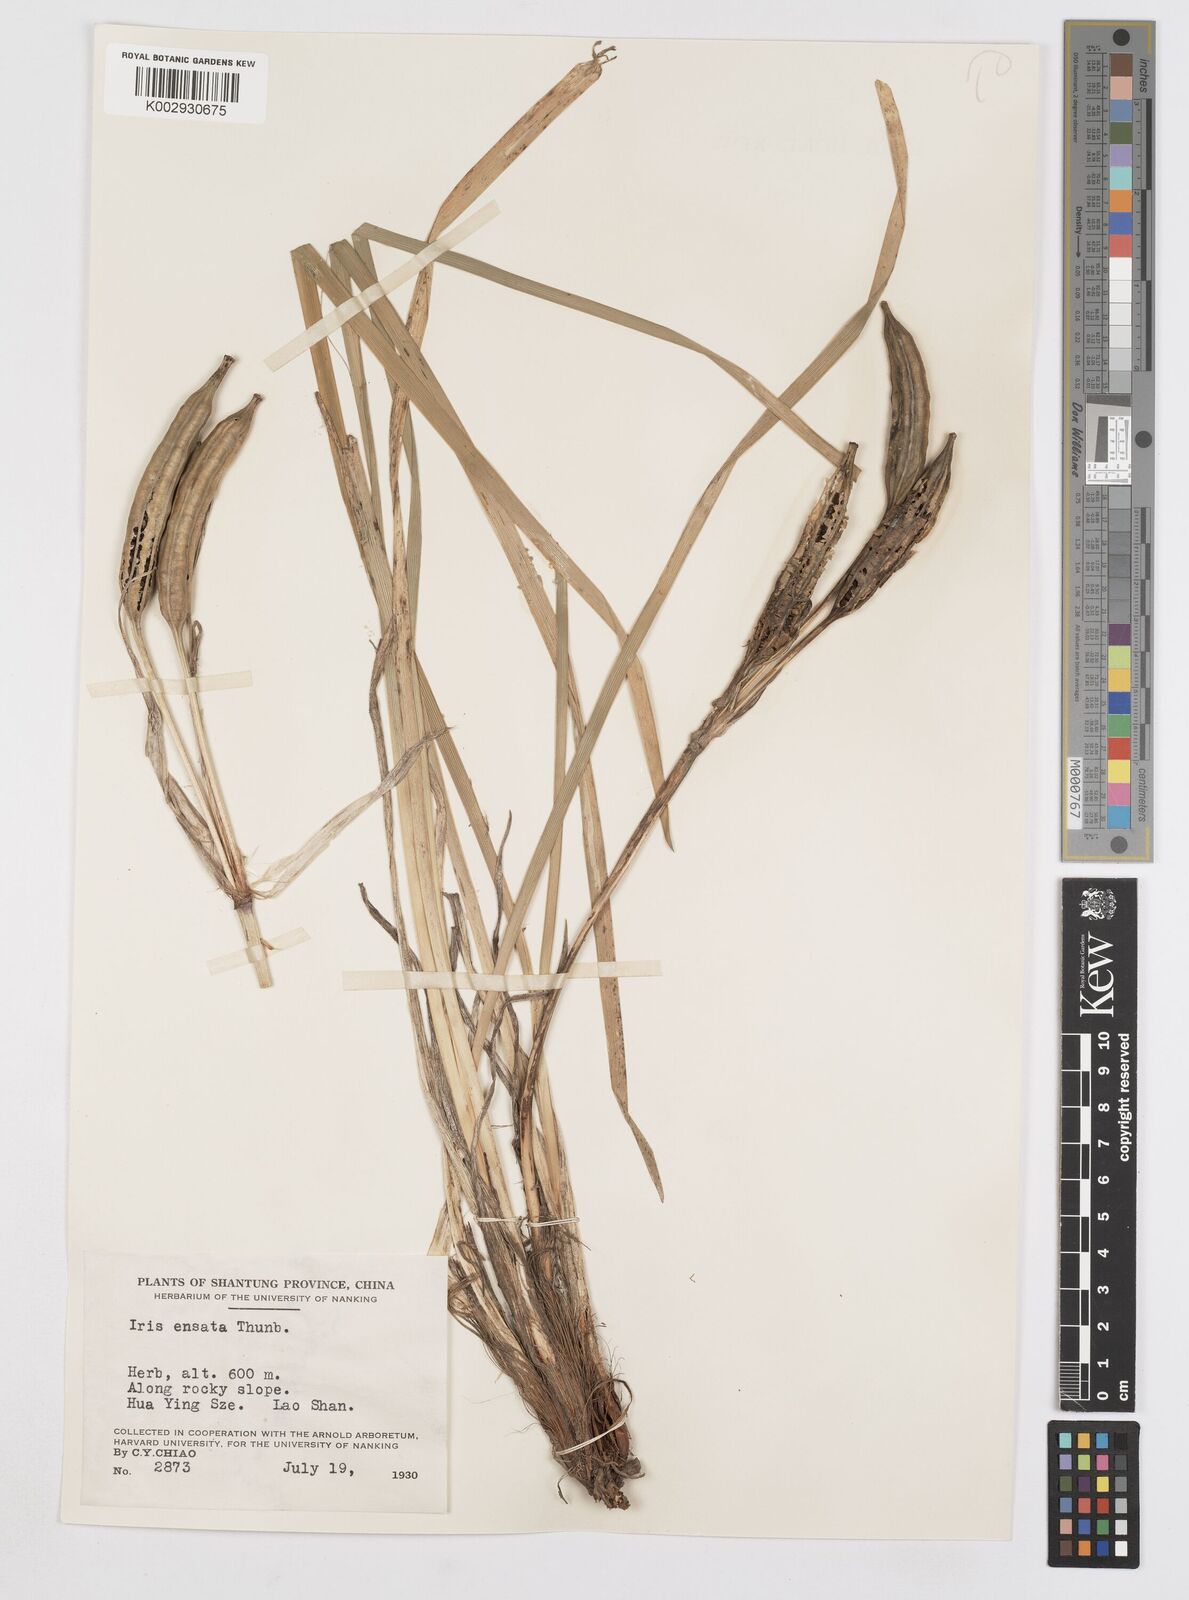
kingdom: Plantae
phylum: Tracheophyta
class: Liliopsida
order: Asparagales
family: Iridaceae
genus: Iris
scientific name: Iris ensata
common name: Beaked iris
